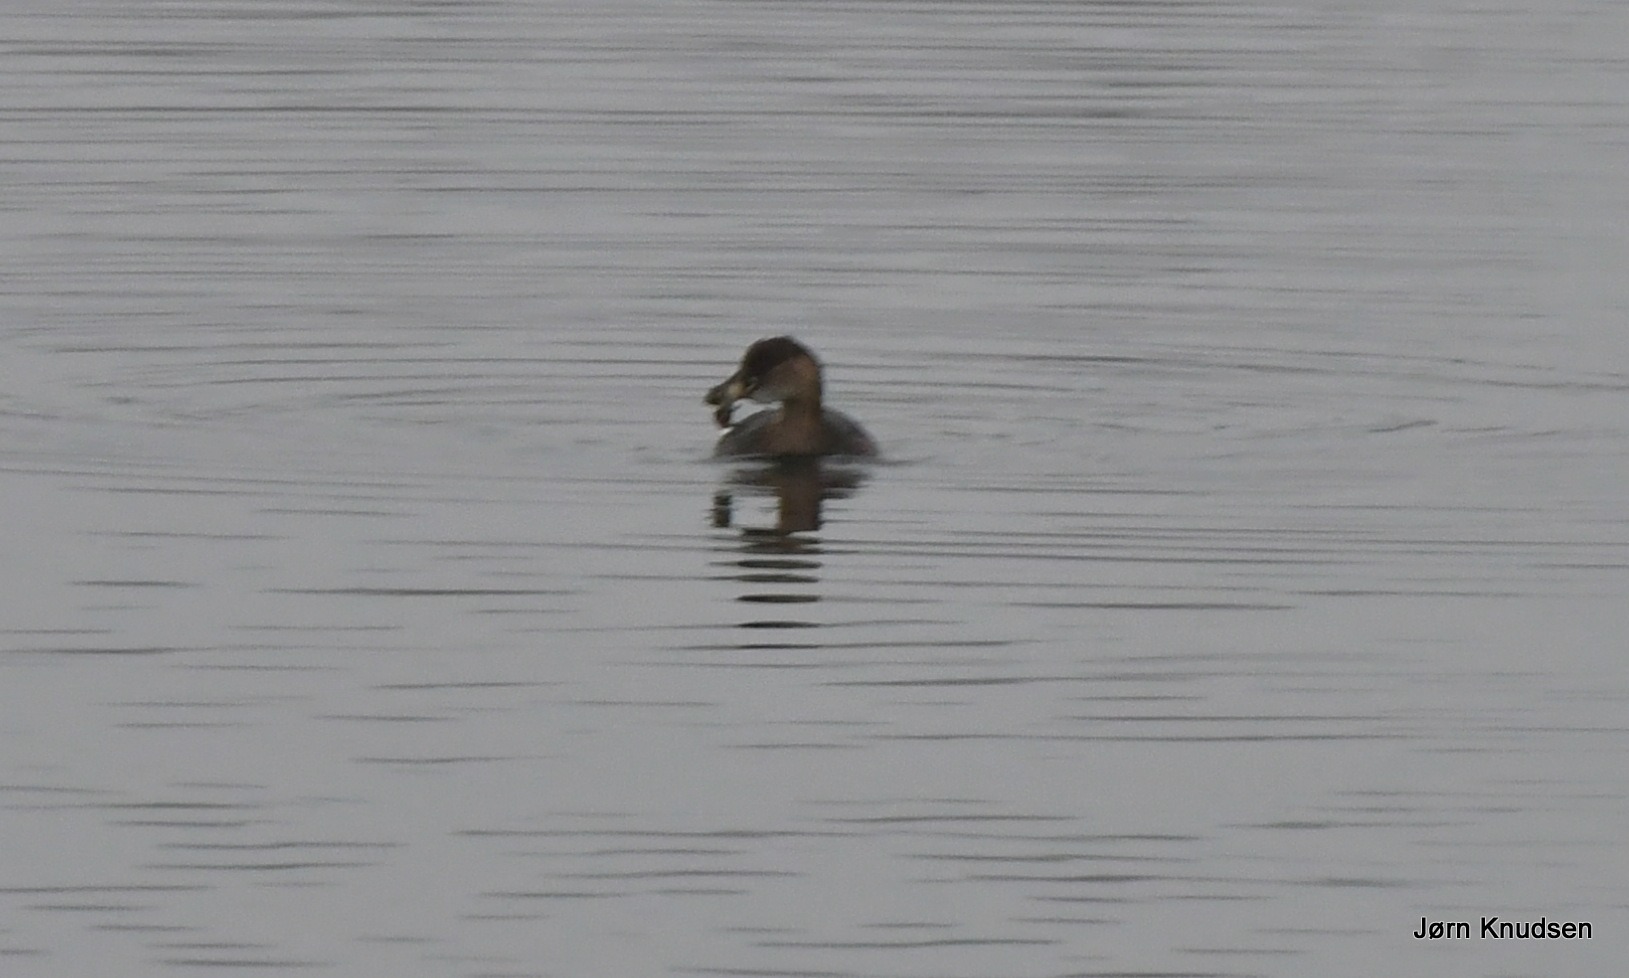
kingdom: Animalia
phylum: Chordata
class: Aves
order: Podicipediformes
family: Podicipedidae
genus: Tachybaptus
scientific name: Tachybaptus ruficollis
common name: Lille lappedykker
